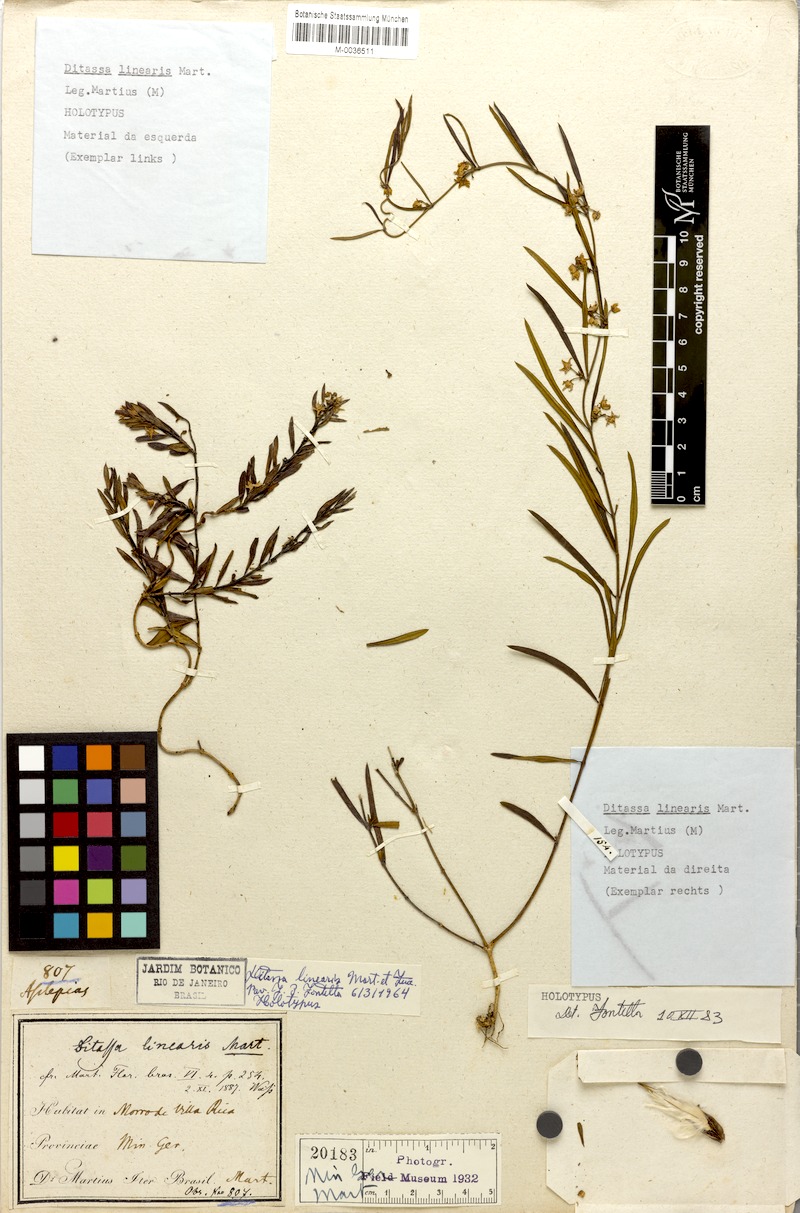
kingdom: Plantae
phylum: Tracheophyta
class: Magnoliopsida
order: Gentianales
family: Apocynaceae
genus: Ditassa
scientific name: Ditassa linearis
